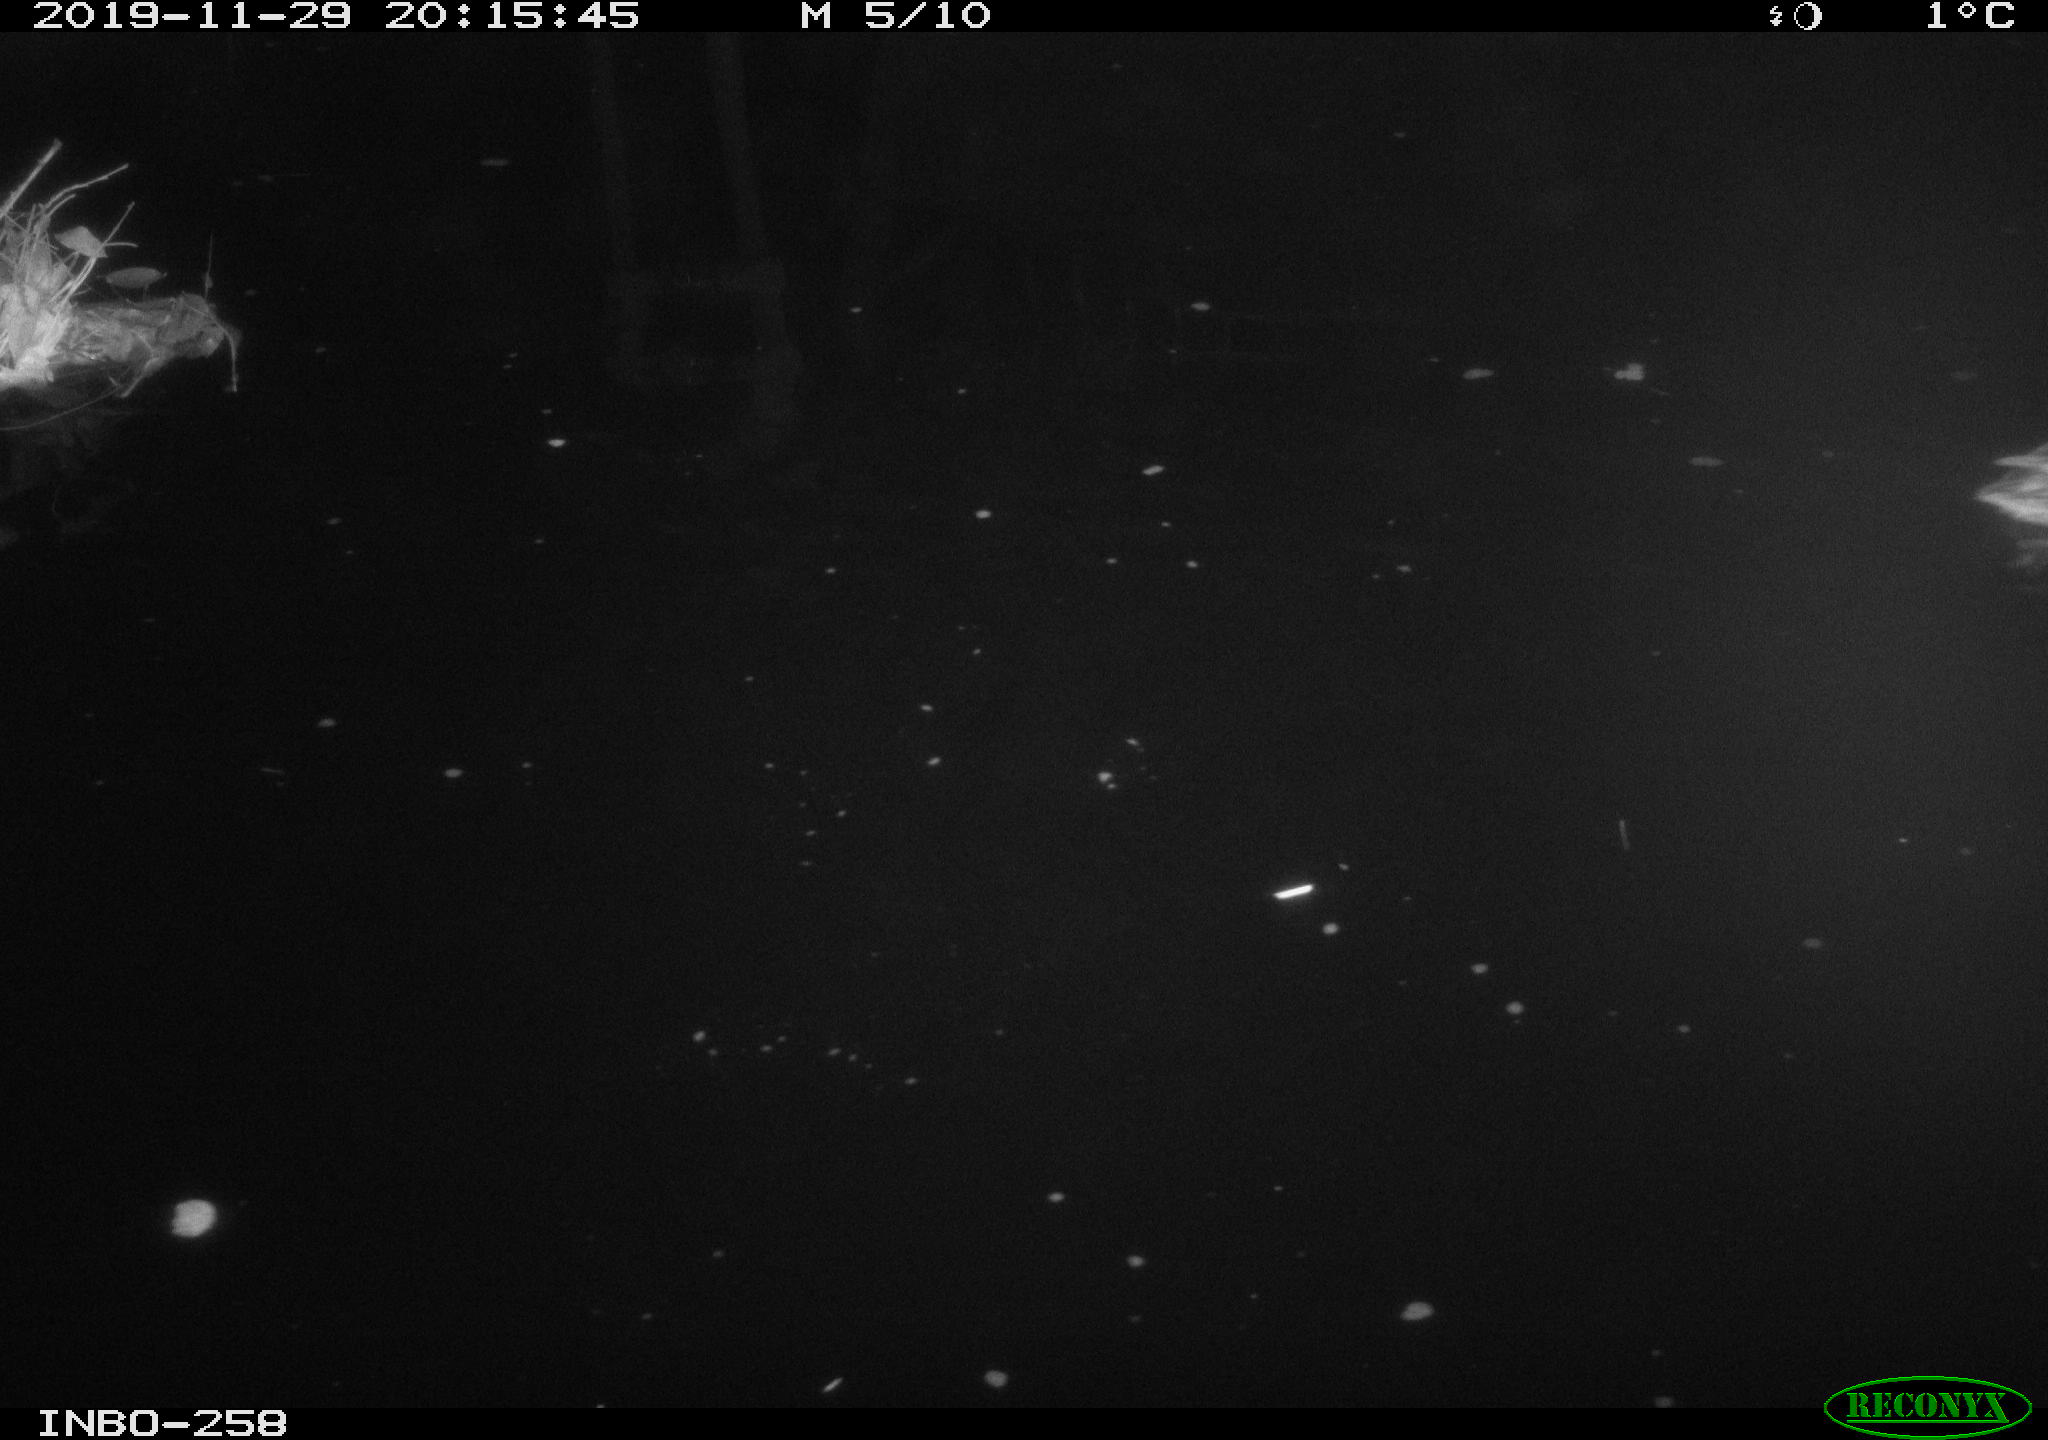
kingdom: Animalia
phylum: Chordata
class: Aves
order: Anseriformes
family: Anatidae
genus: Anas
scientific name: Anas platyrhynchos
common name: Mallard
